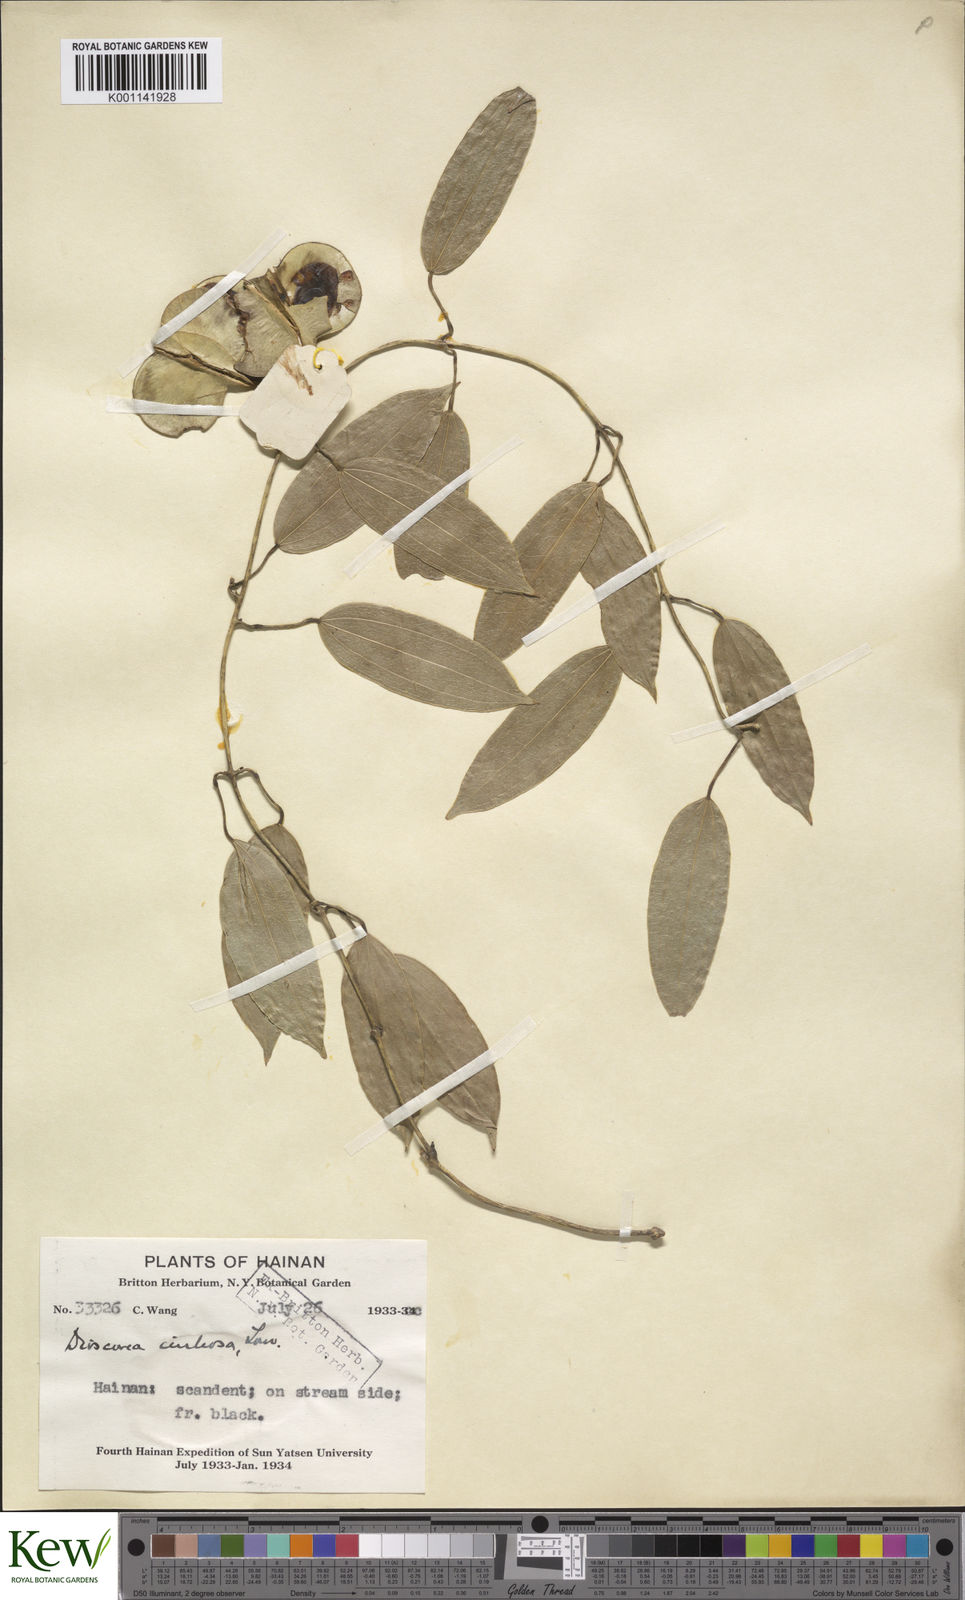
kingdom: Plantae
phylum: Tracheophyta
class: Liliopsida
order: Dioscoreales
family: Dioscoreaceae
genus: Dioscorea
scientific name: Dioscorea cirrhosa
